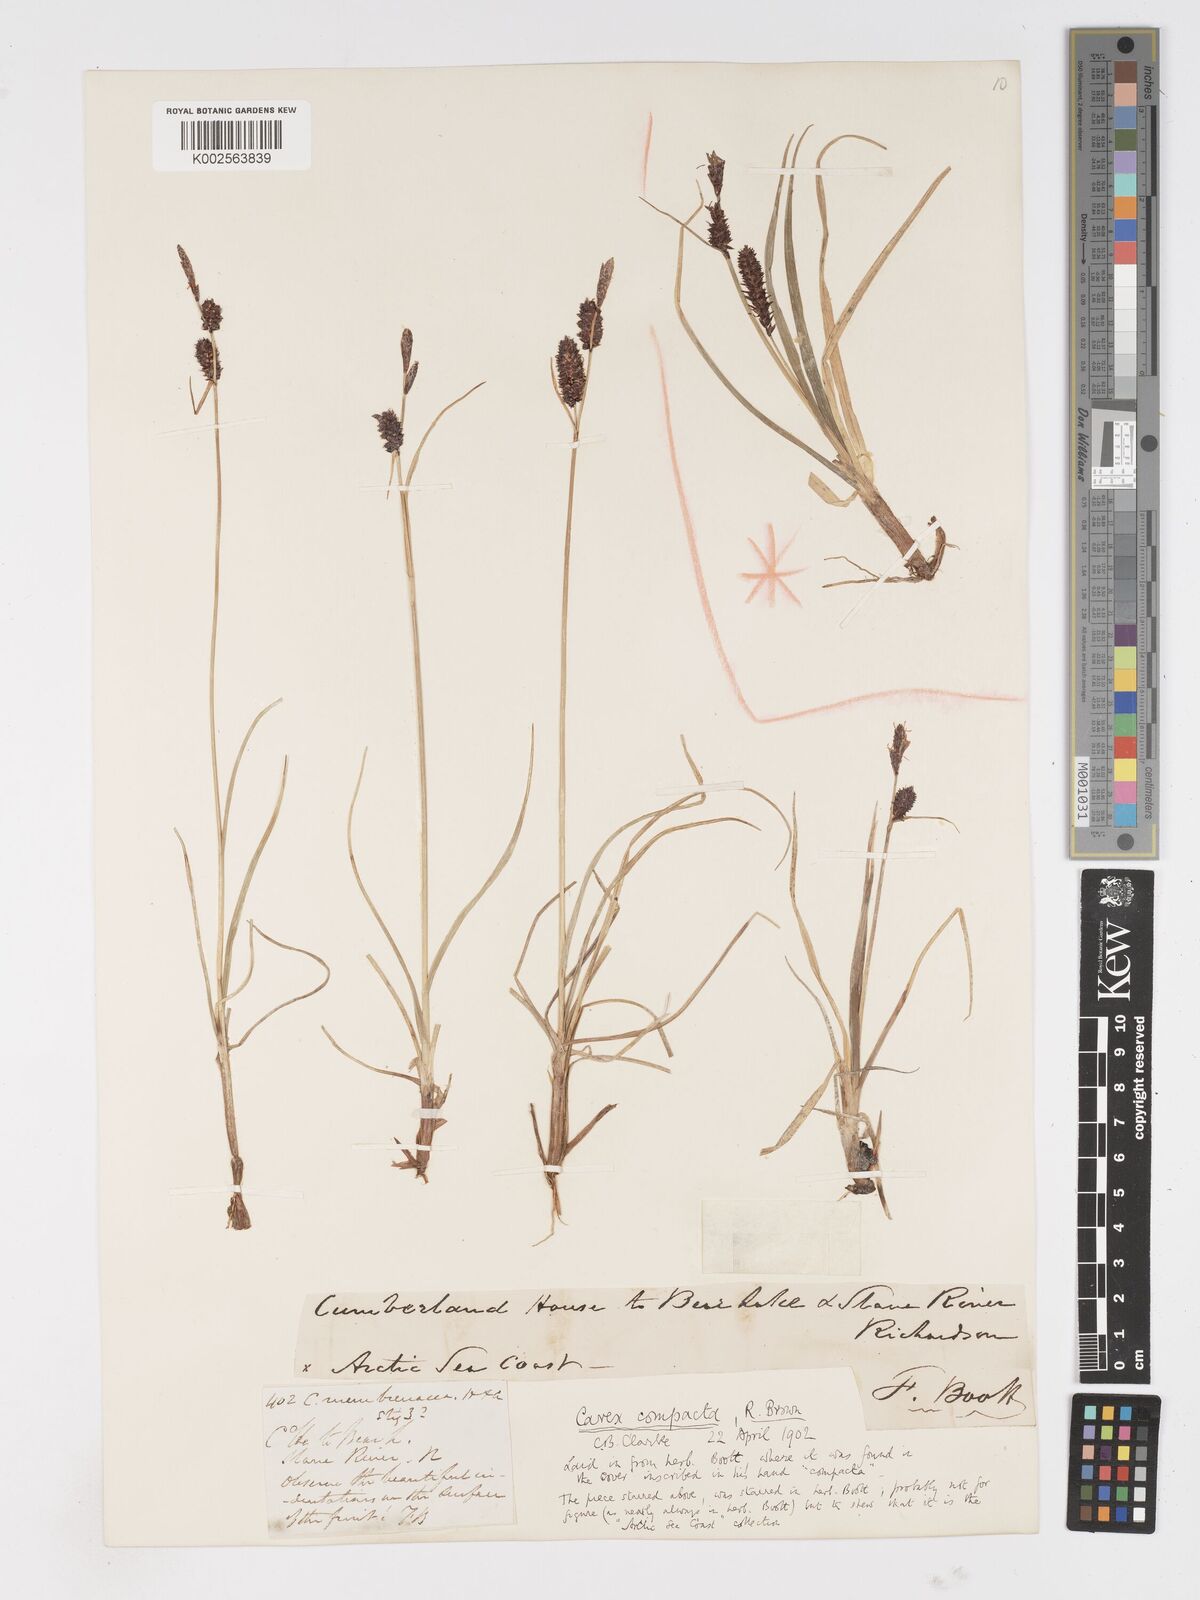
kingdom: Plantae
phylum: Tracheophyta
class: Liliopsida
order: Poales
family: Cyperaceae
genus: Carex
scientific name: Carex membranacea
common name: Fragile sedge
